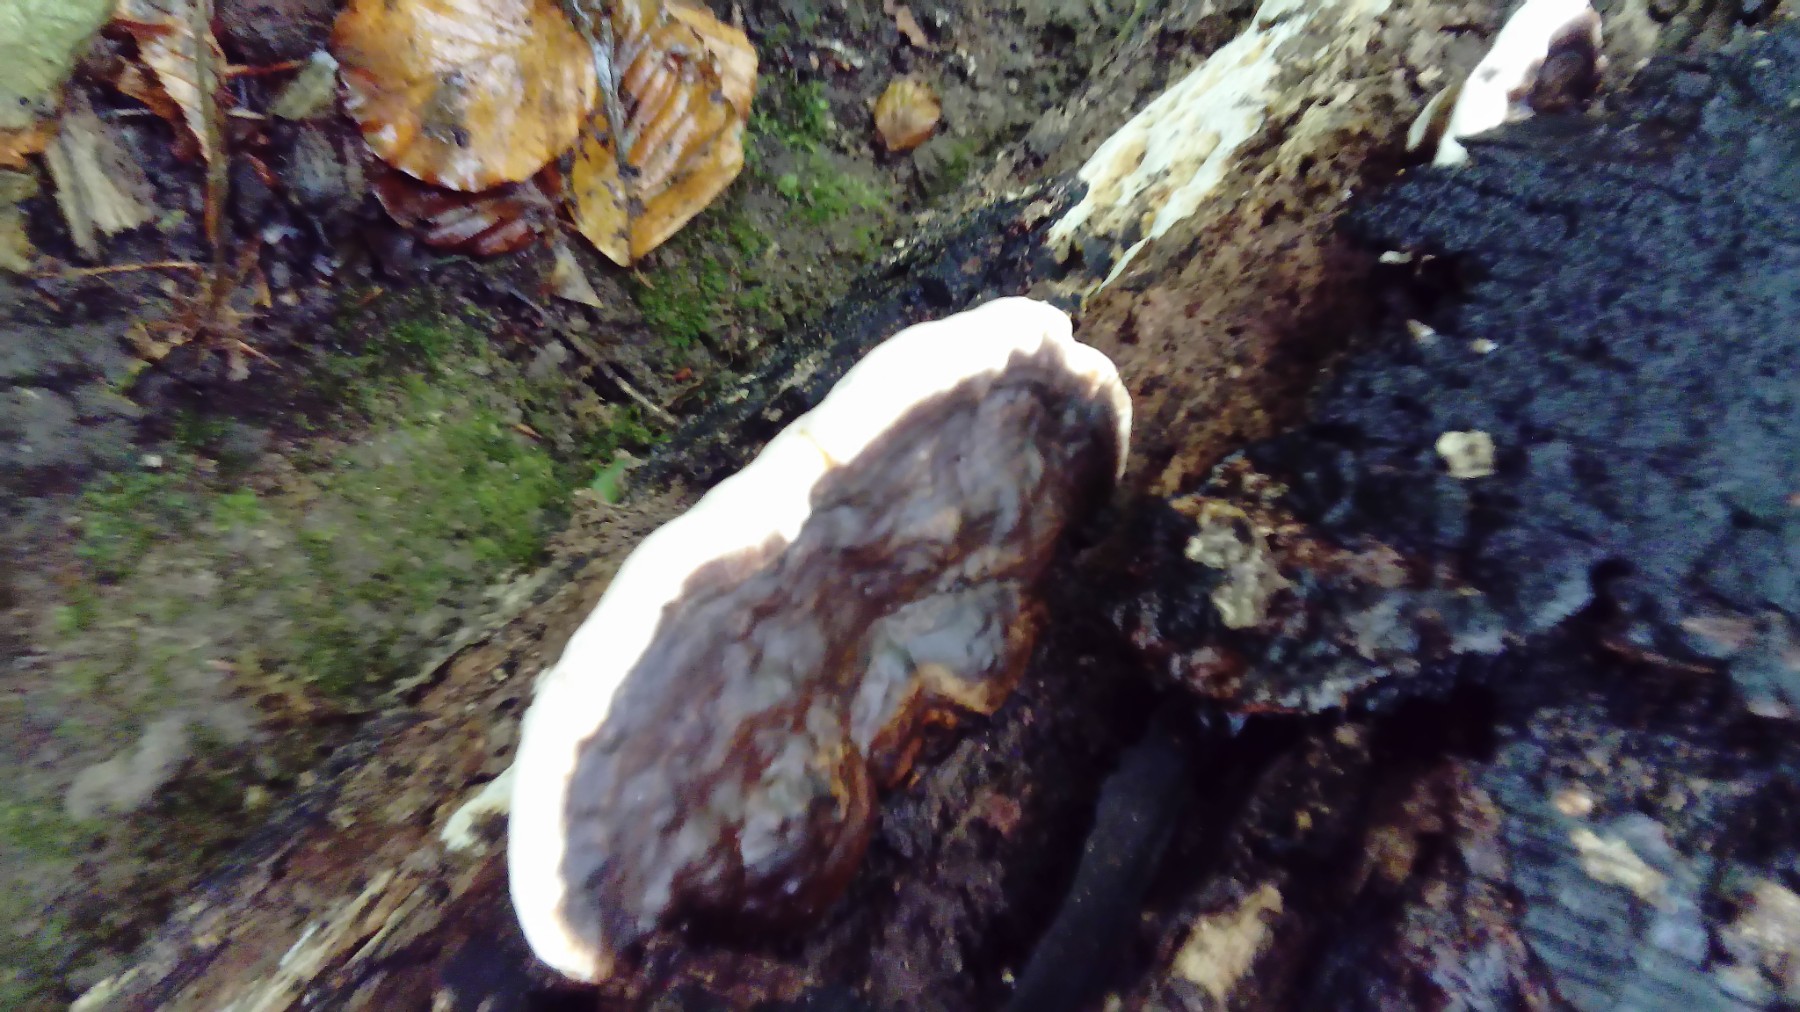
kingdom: Fungi
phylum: Basidiomycota
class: Agaricomycetes
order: Polyporales
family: Polyporaceae
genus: Ganoderma
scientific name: Ganoderma applanatum
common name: flad lakporesvamp
